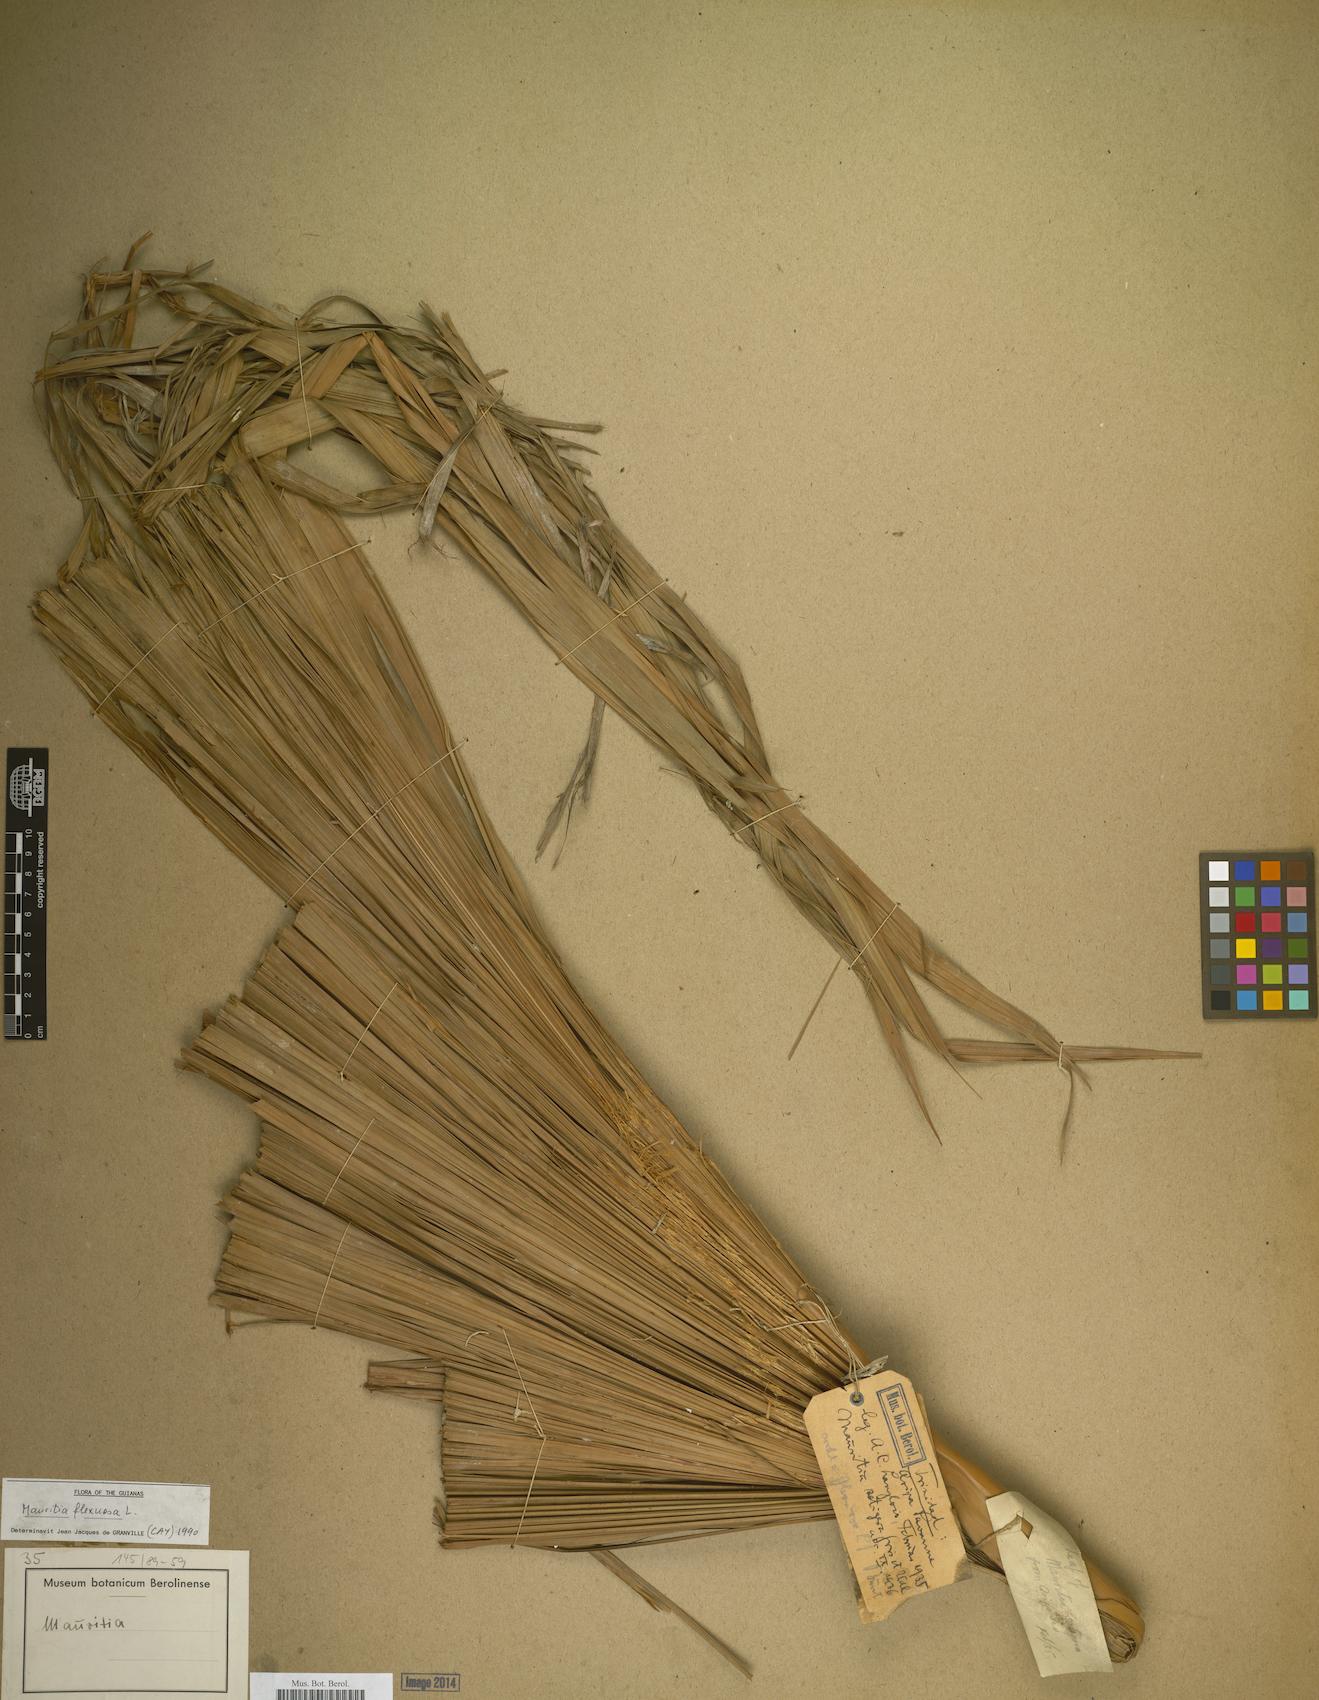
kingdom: Plantae
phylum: Tracheophyta
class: Liliopsida
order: Arecales
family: Arecaceae
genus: Mauritia
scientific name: Mauritia flexuosa
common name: Tree-of-life
